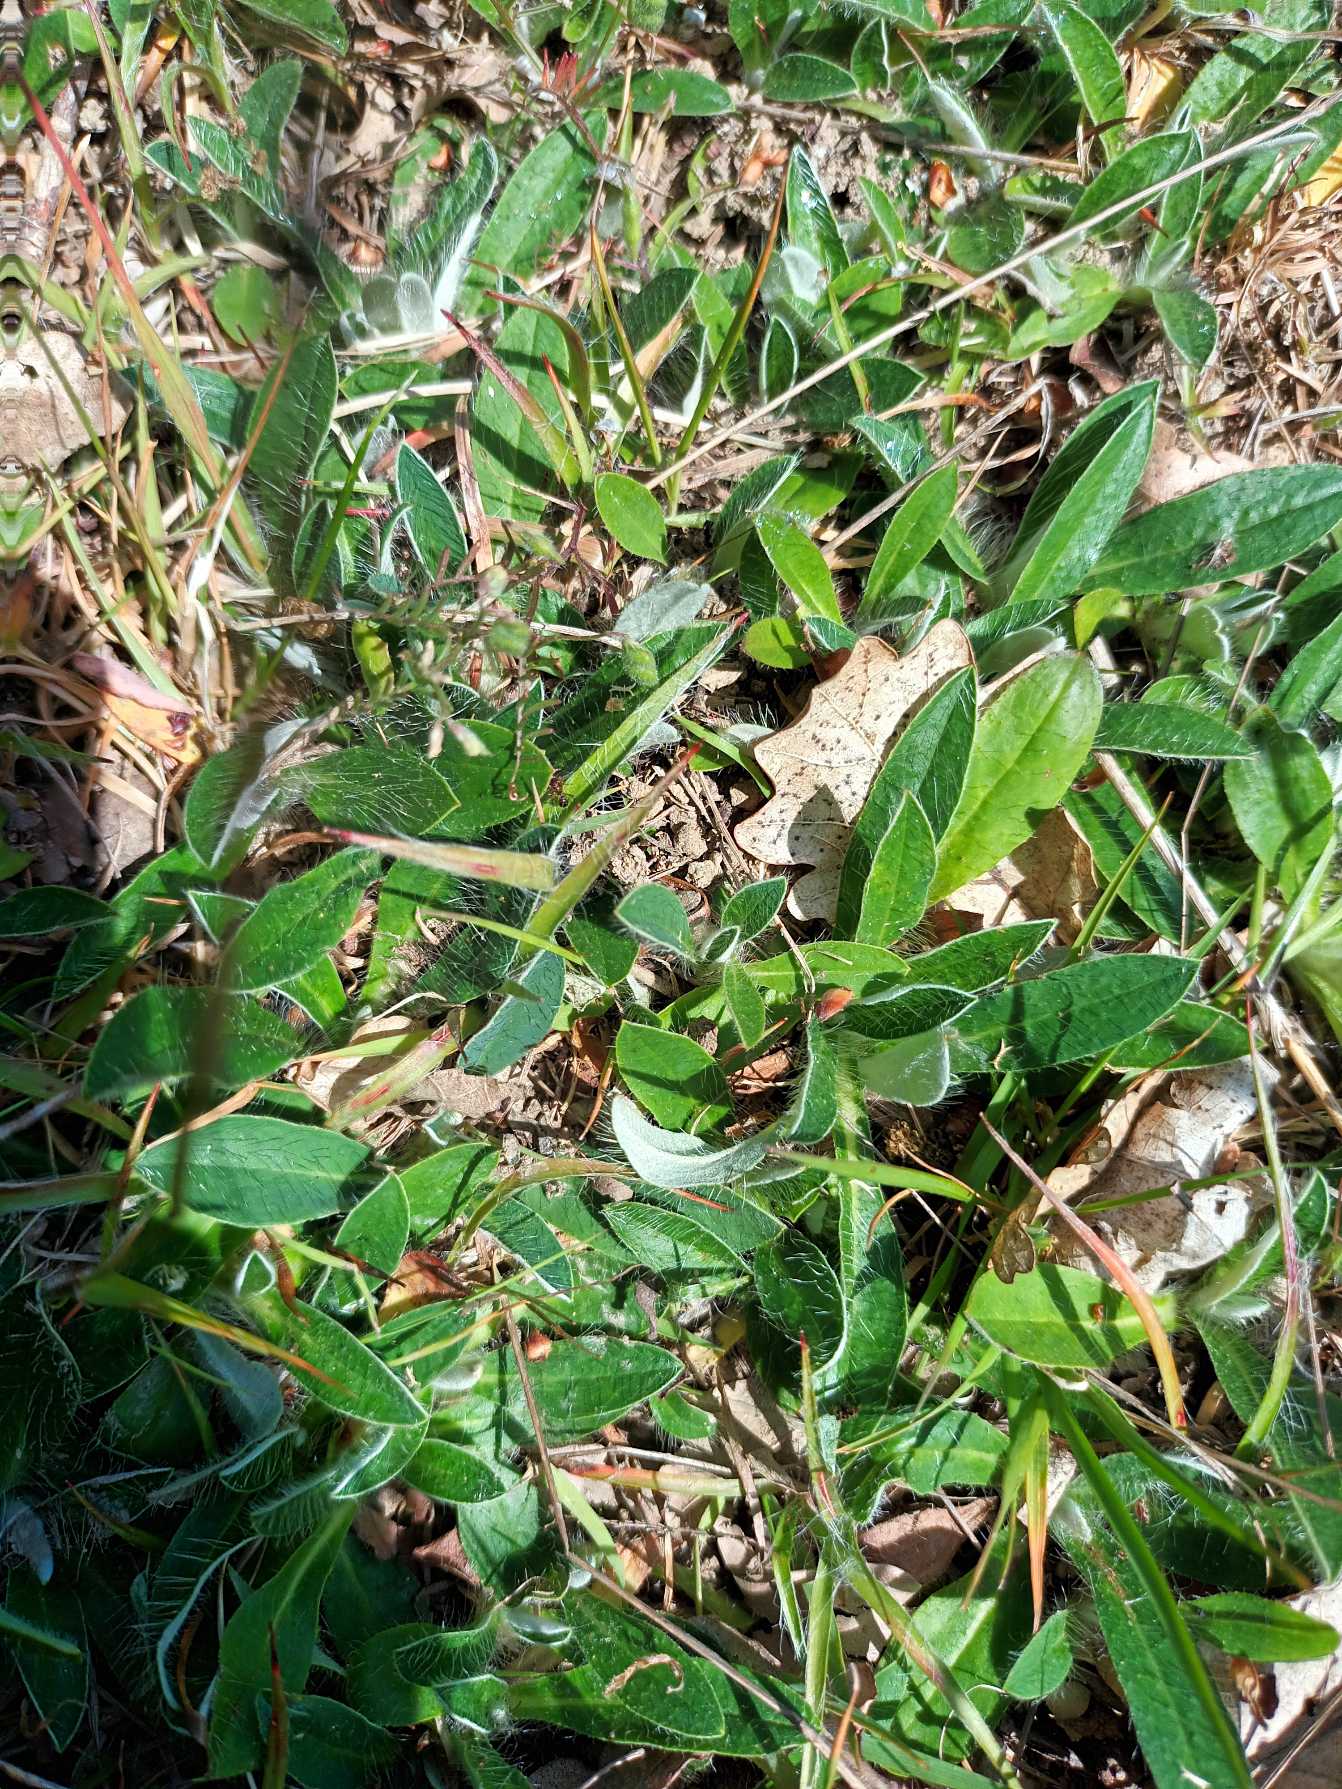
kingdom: Plantae
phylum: Tracheophyta
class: Magnoliopsida
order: Asterales
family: Asteraceae
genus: Pilosella
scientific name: Pilosella officinarum
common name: Håret høgeurt
